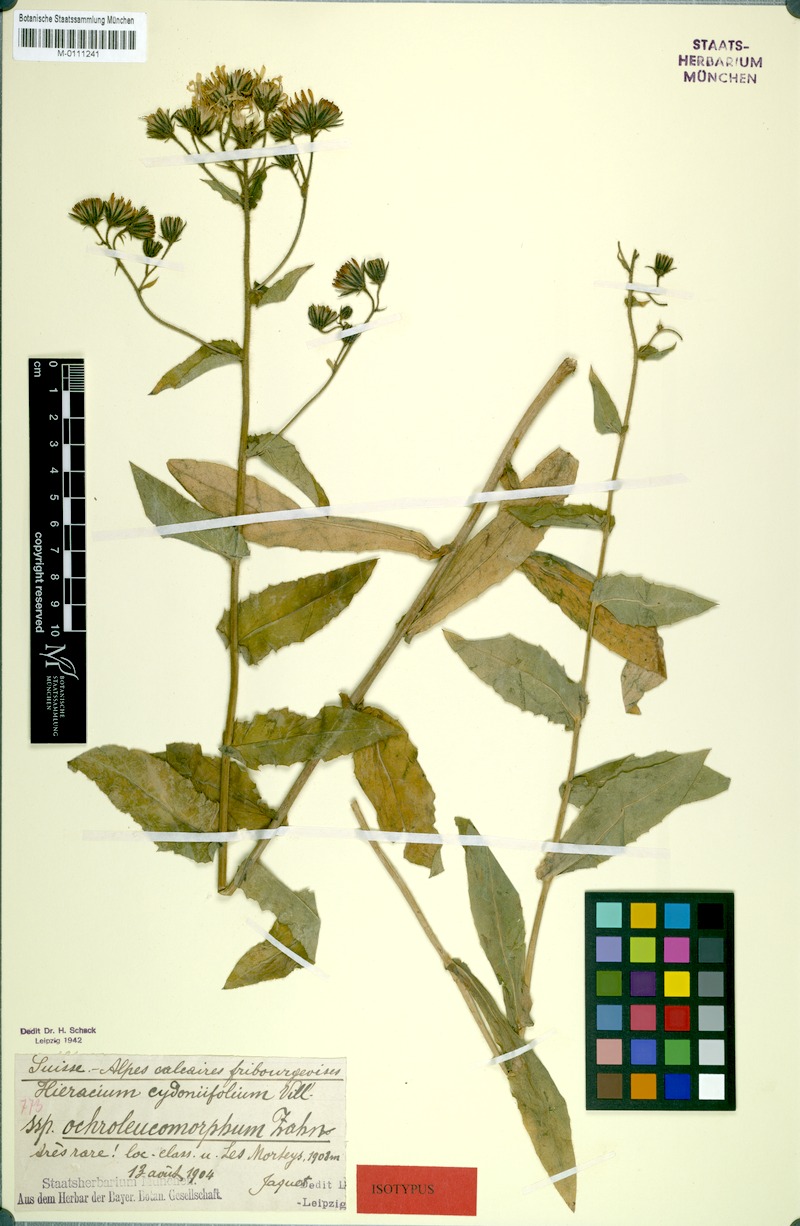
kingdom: Plantae
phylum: Tracheophyta
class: Magnoliopsida
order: Asterales
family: Asteraceae
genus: Hieracium
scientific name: Hieracium cydoniifolium
